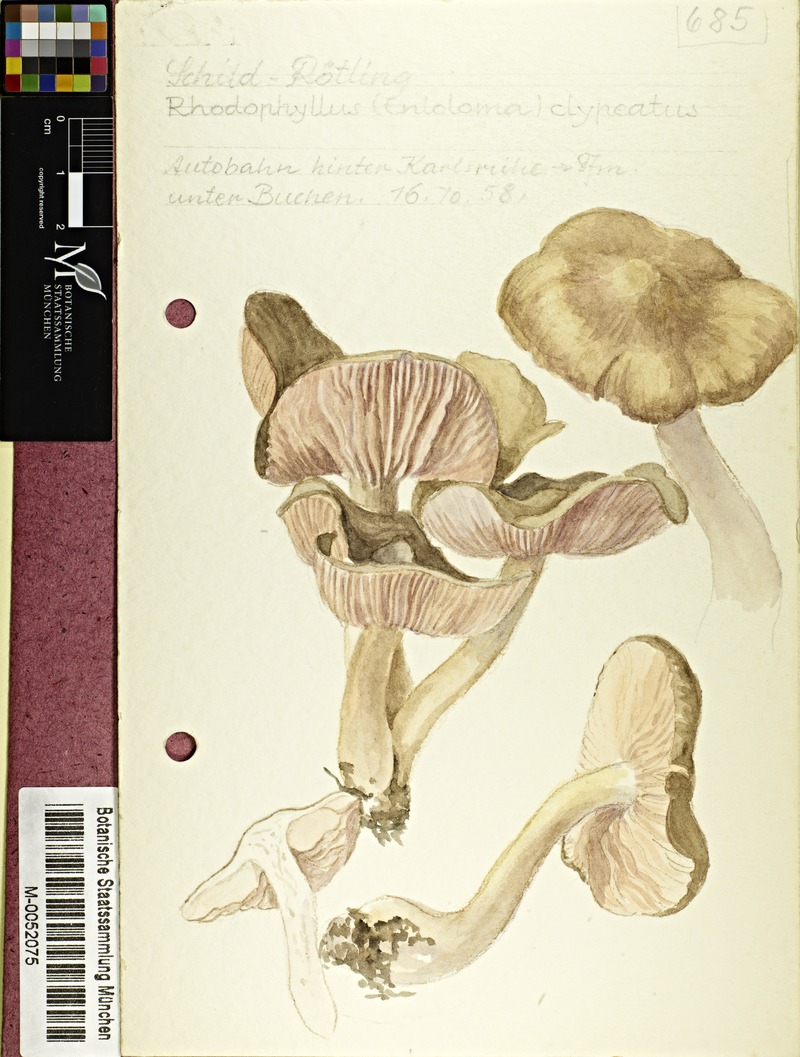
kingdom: Fungi
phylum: Basidiomycota
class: Agaricomycetes
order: Agaricales
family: Entolomataceae
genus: Entoloma
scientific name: Entoloma clypeatum
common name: Shield pinkgill
